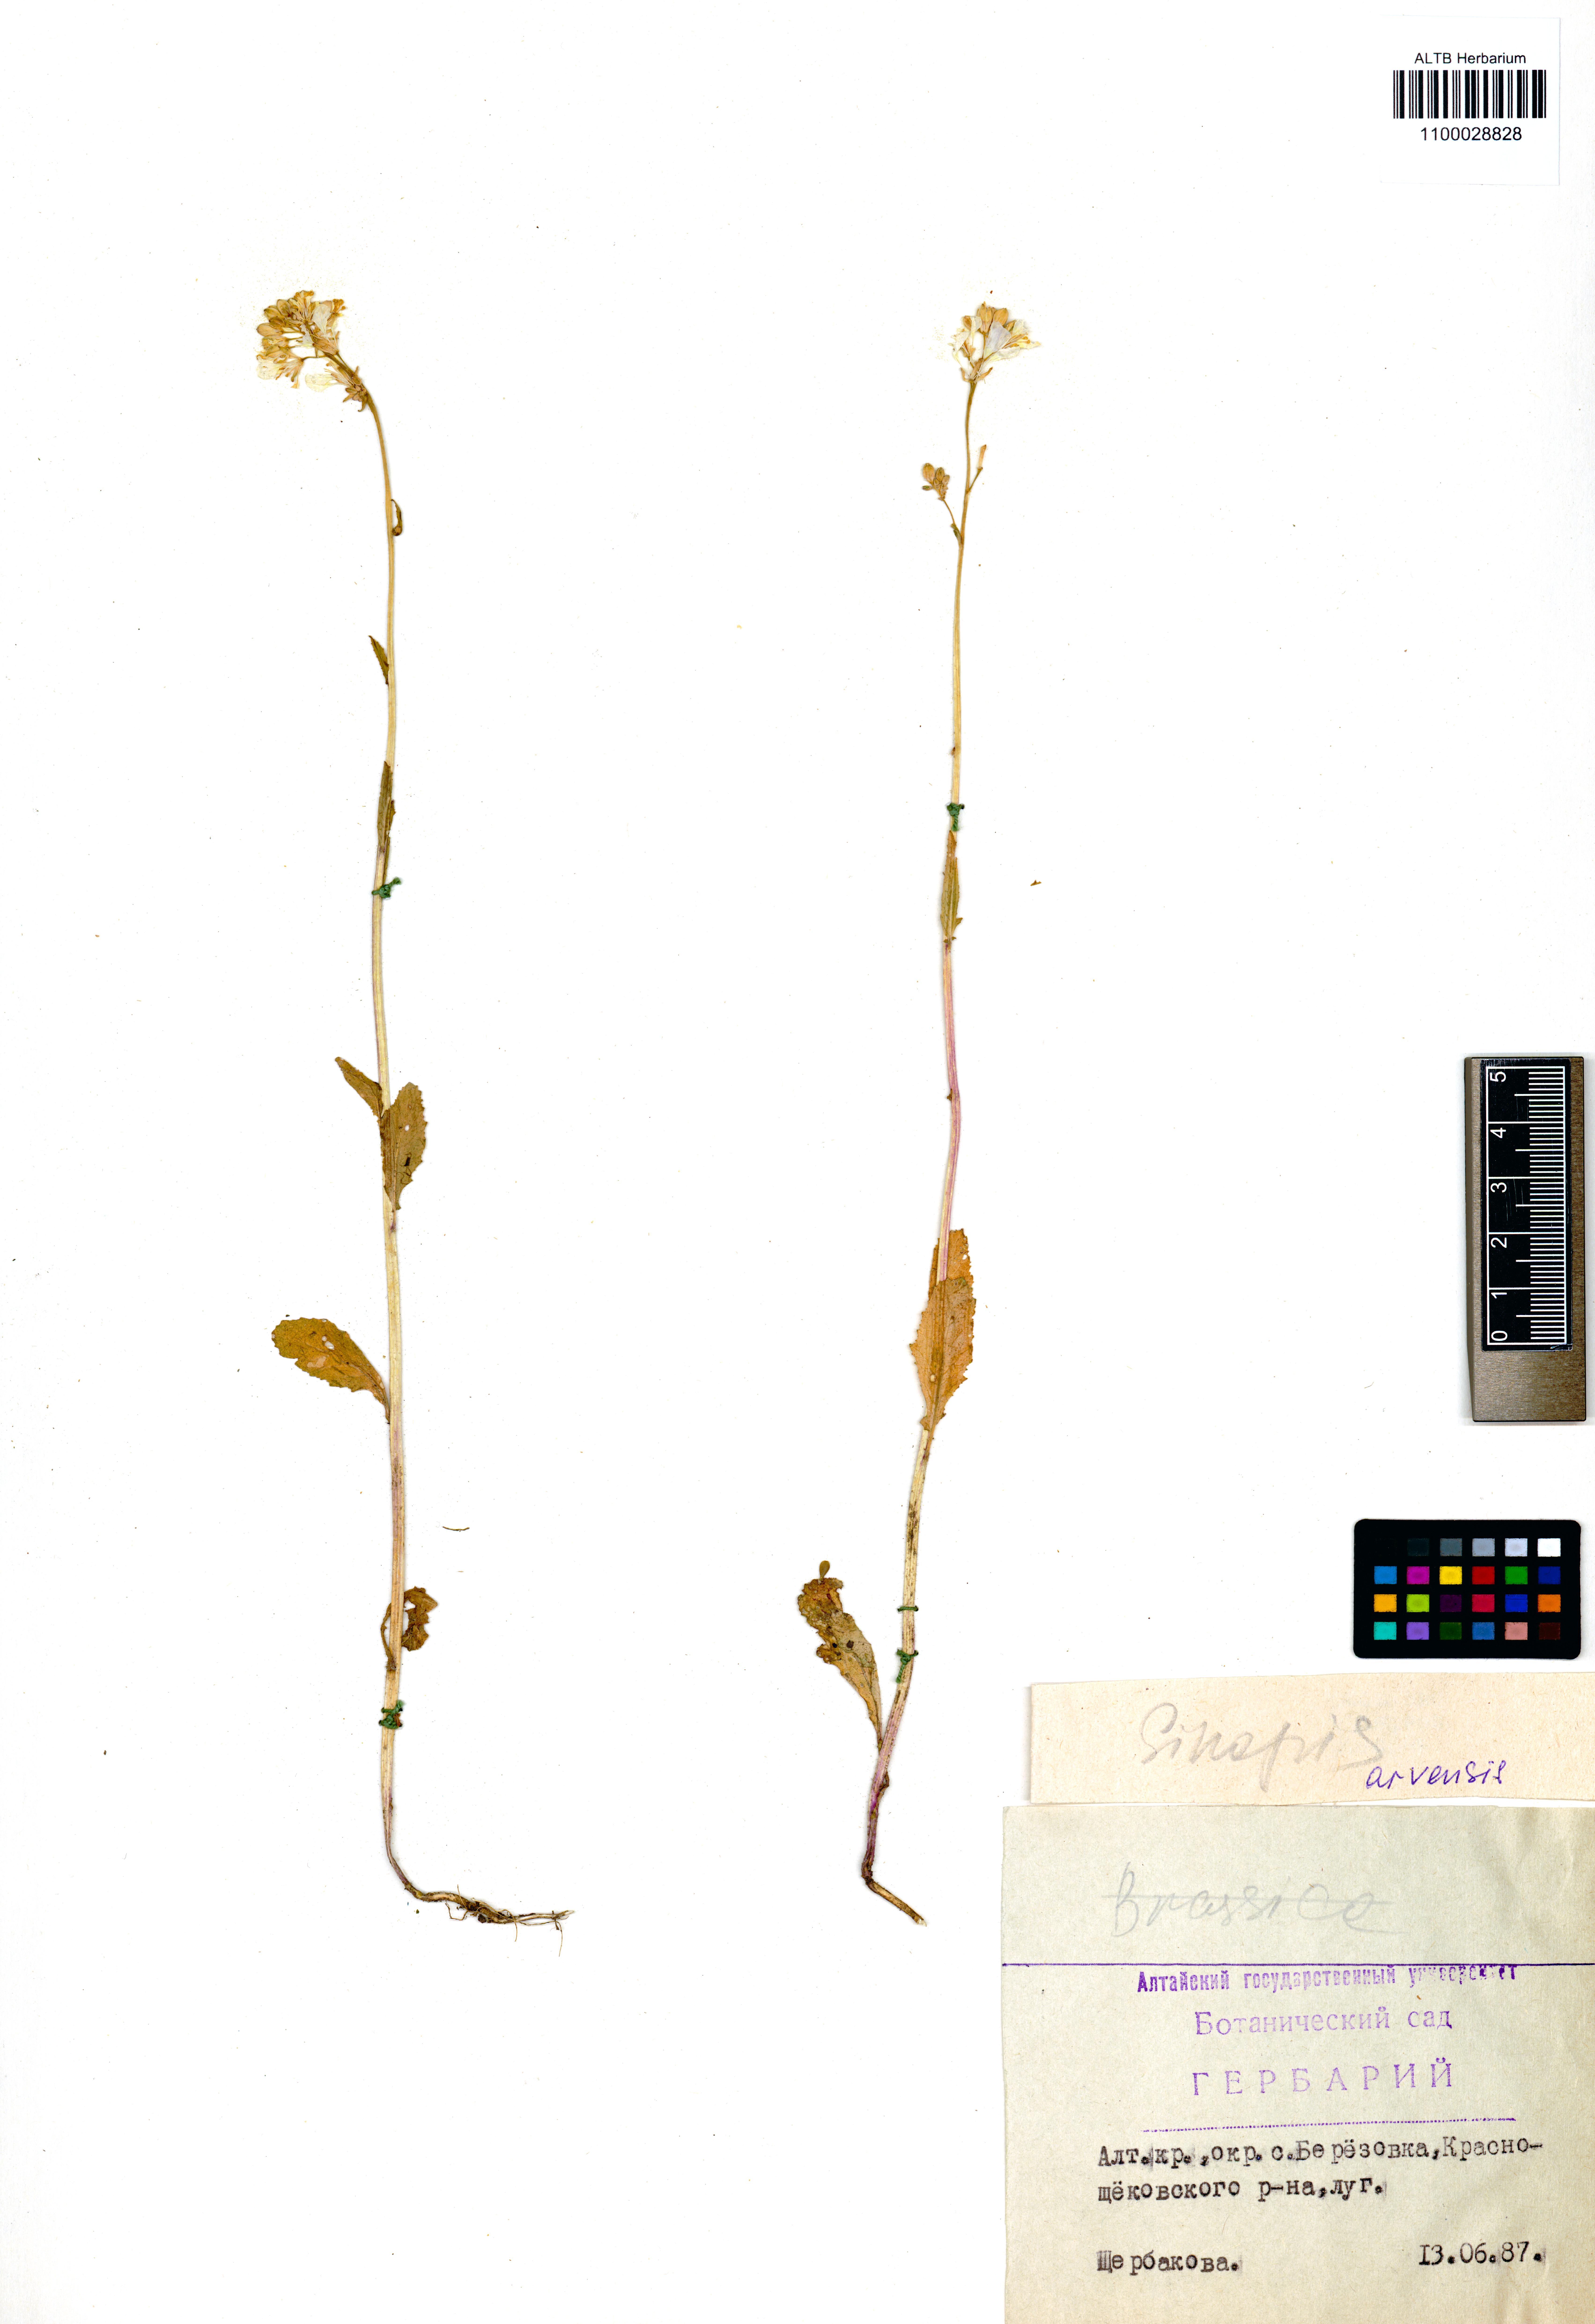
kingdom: Plantae
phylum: Tracheophyta
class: Magnoliopsida
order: Brassicales
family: Brassicaceae
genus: Sinapis
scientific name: Sinapis arvensis
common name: Charlock
